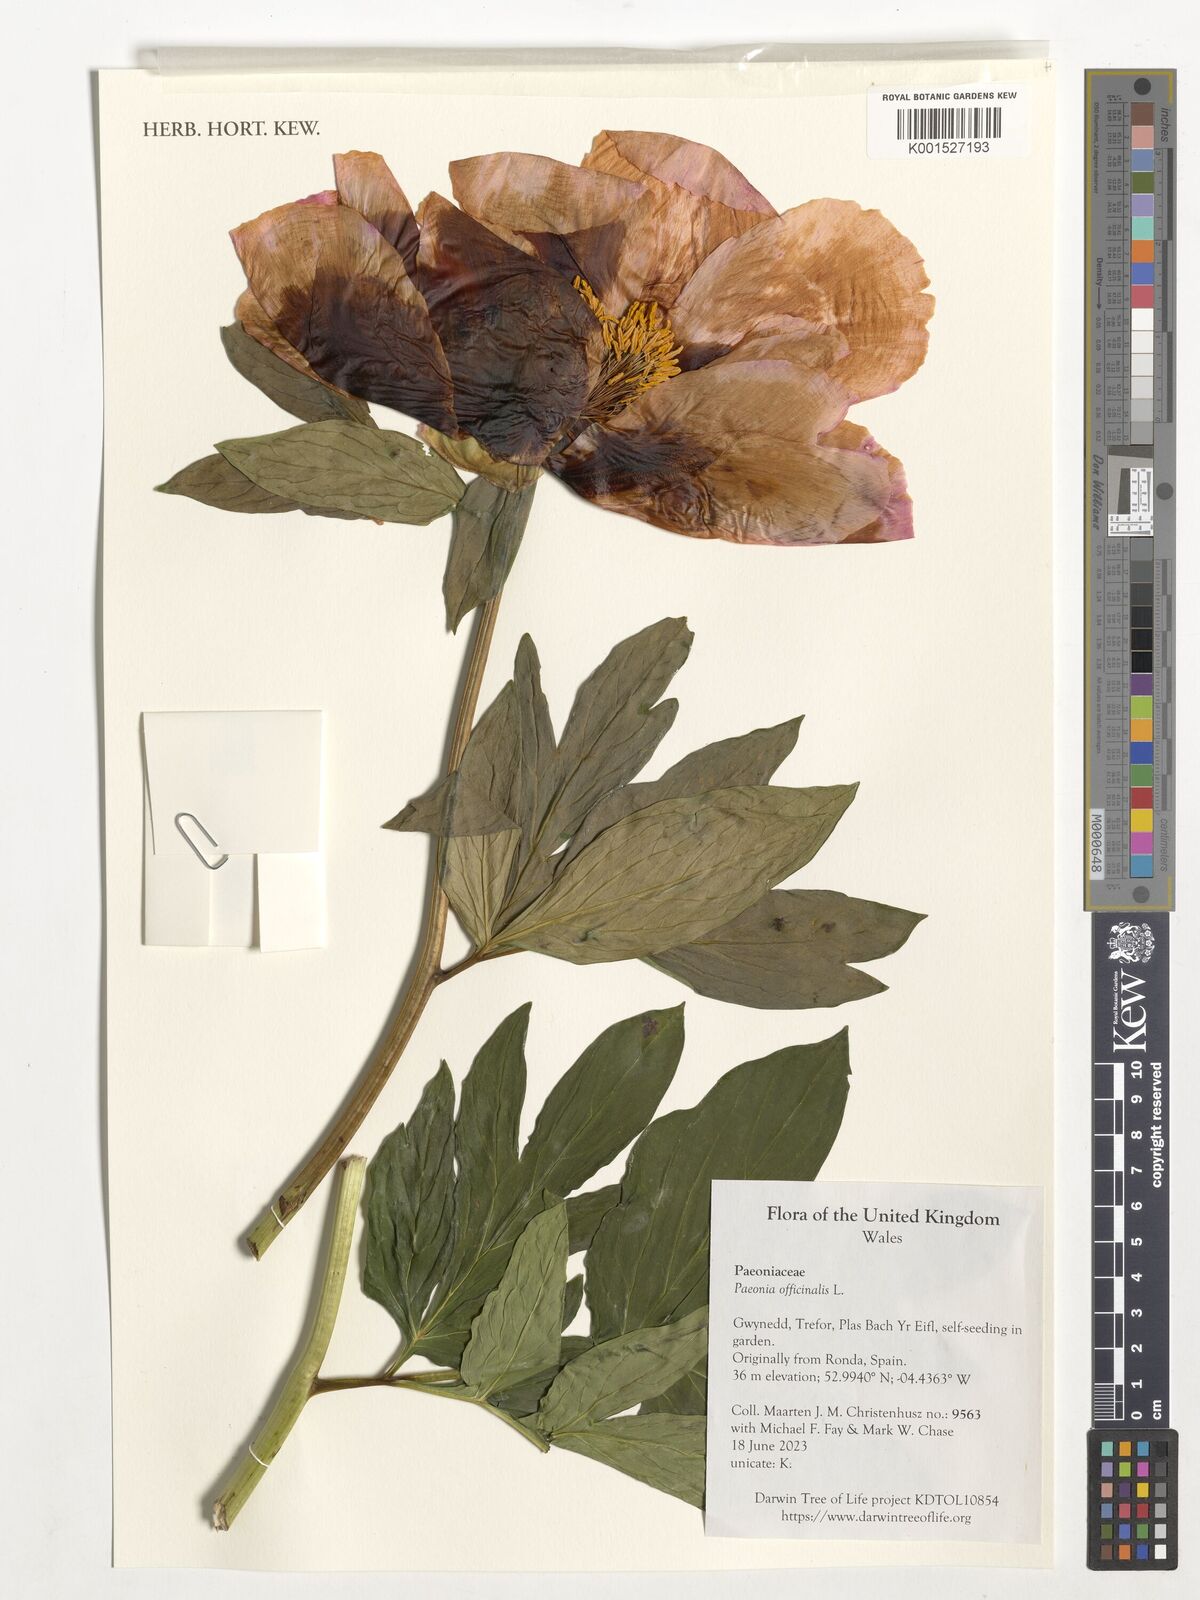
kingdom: Plantae
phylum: Tracheophyta
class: Magnoliopsida
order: Saxifragales
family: Paeoniaceae
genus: Paeonia
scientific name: Paeonia officinalis
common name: Common peony
